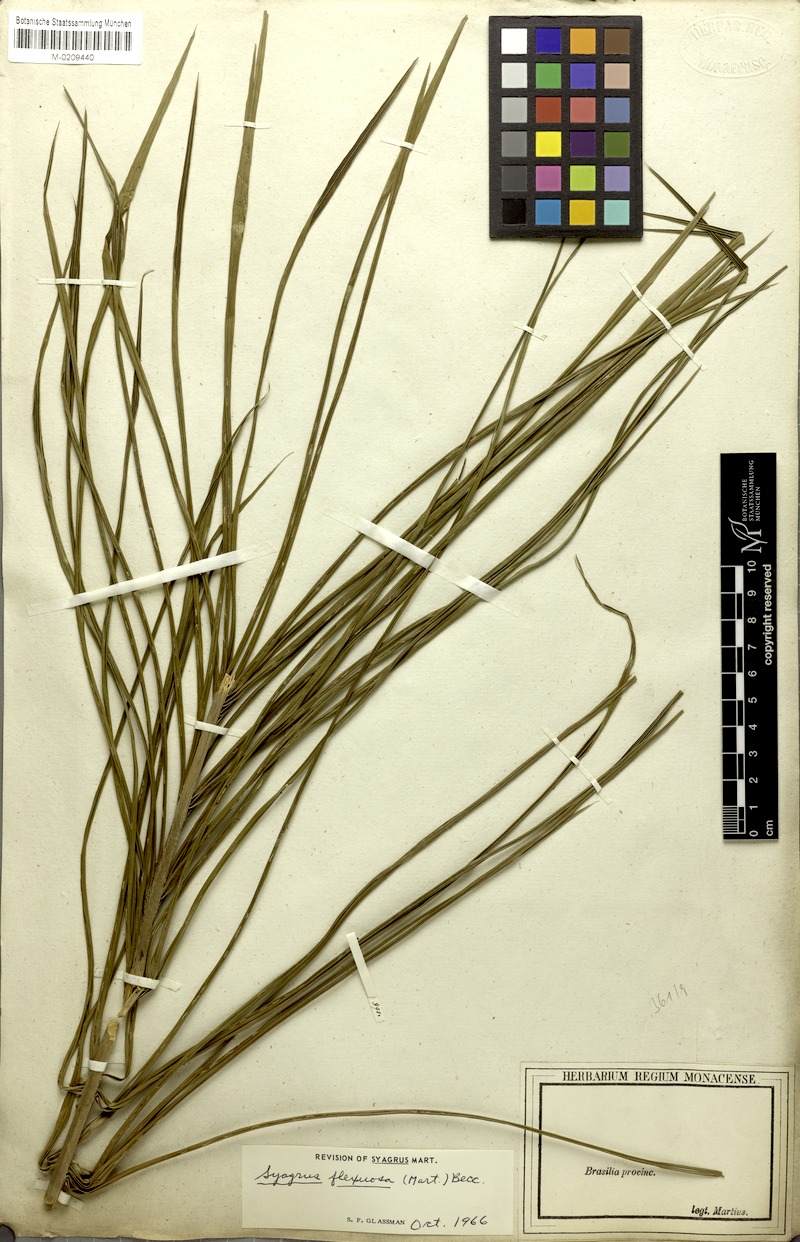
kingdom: Plantae
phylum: Tracheophyta
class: Liliopsida
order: Arecales
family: Arecaceae
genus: Syagrus
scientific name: Syagrus flexuosa
